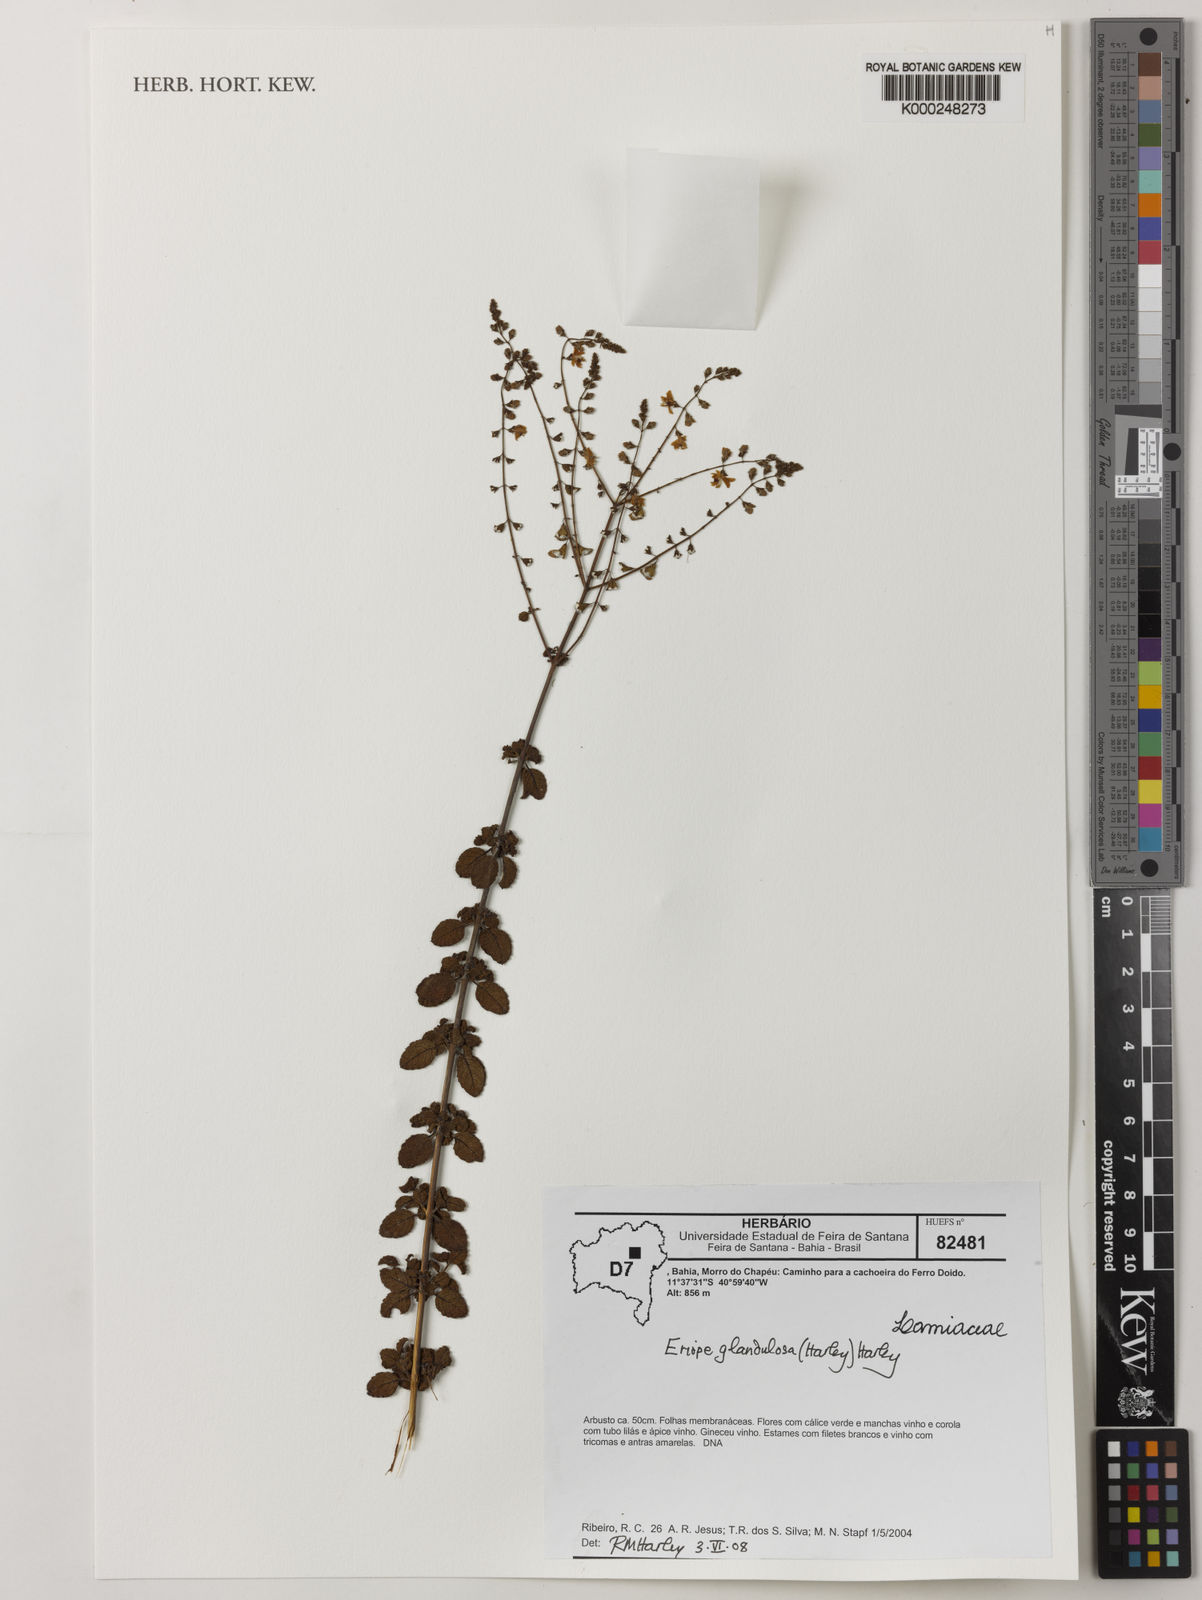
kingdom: Plantae
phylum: Tracheophyta
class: Magnoliopsida
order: Lamiales
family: Lamiaceae
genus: Eriope
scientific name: Eriope glandulosa
